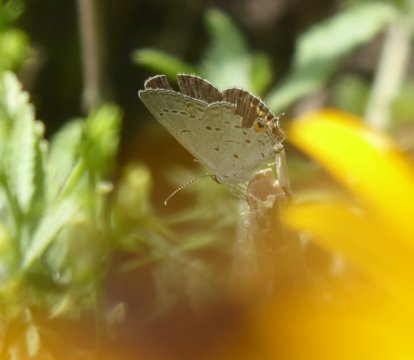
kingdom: Animalia
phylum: Arthropoda
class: Insecta
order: Lepidoptera
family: Lycaenidae
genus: Elkalyce
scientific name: Elkalyce comyntas
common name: Eastern Tailed-Blue
